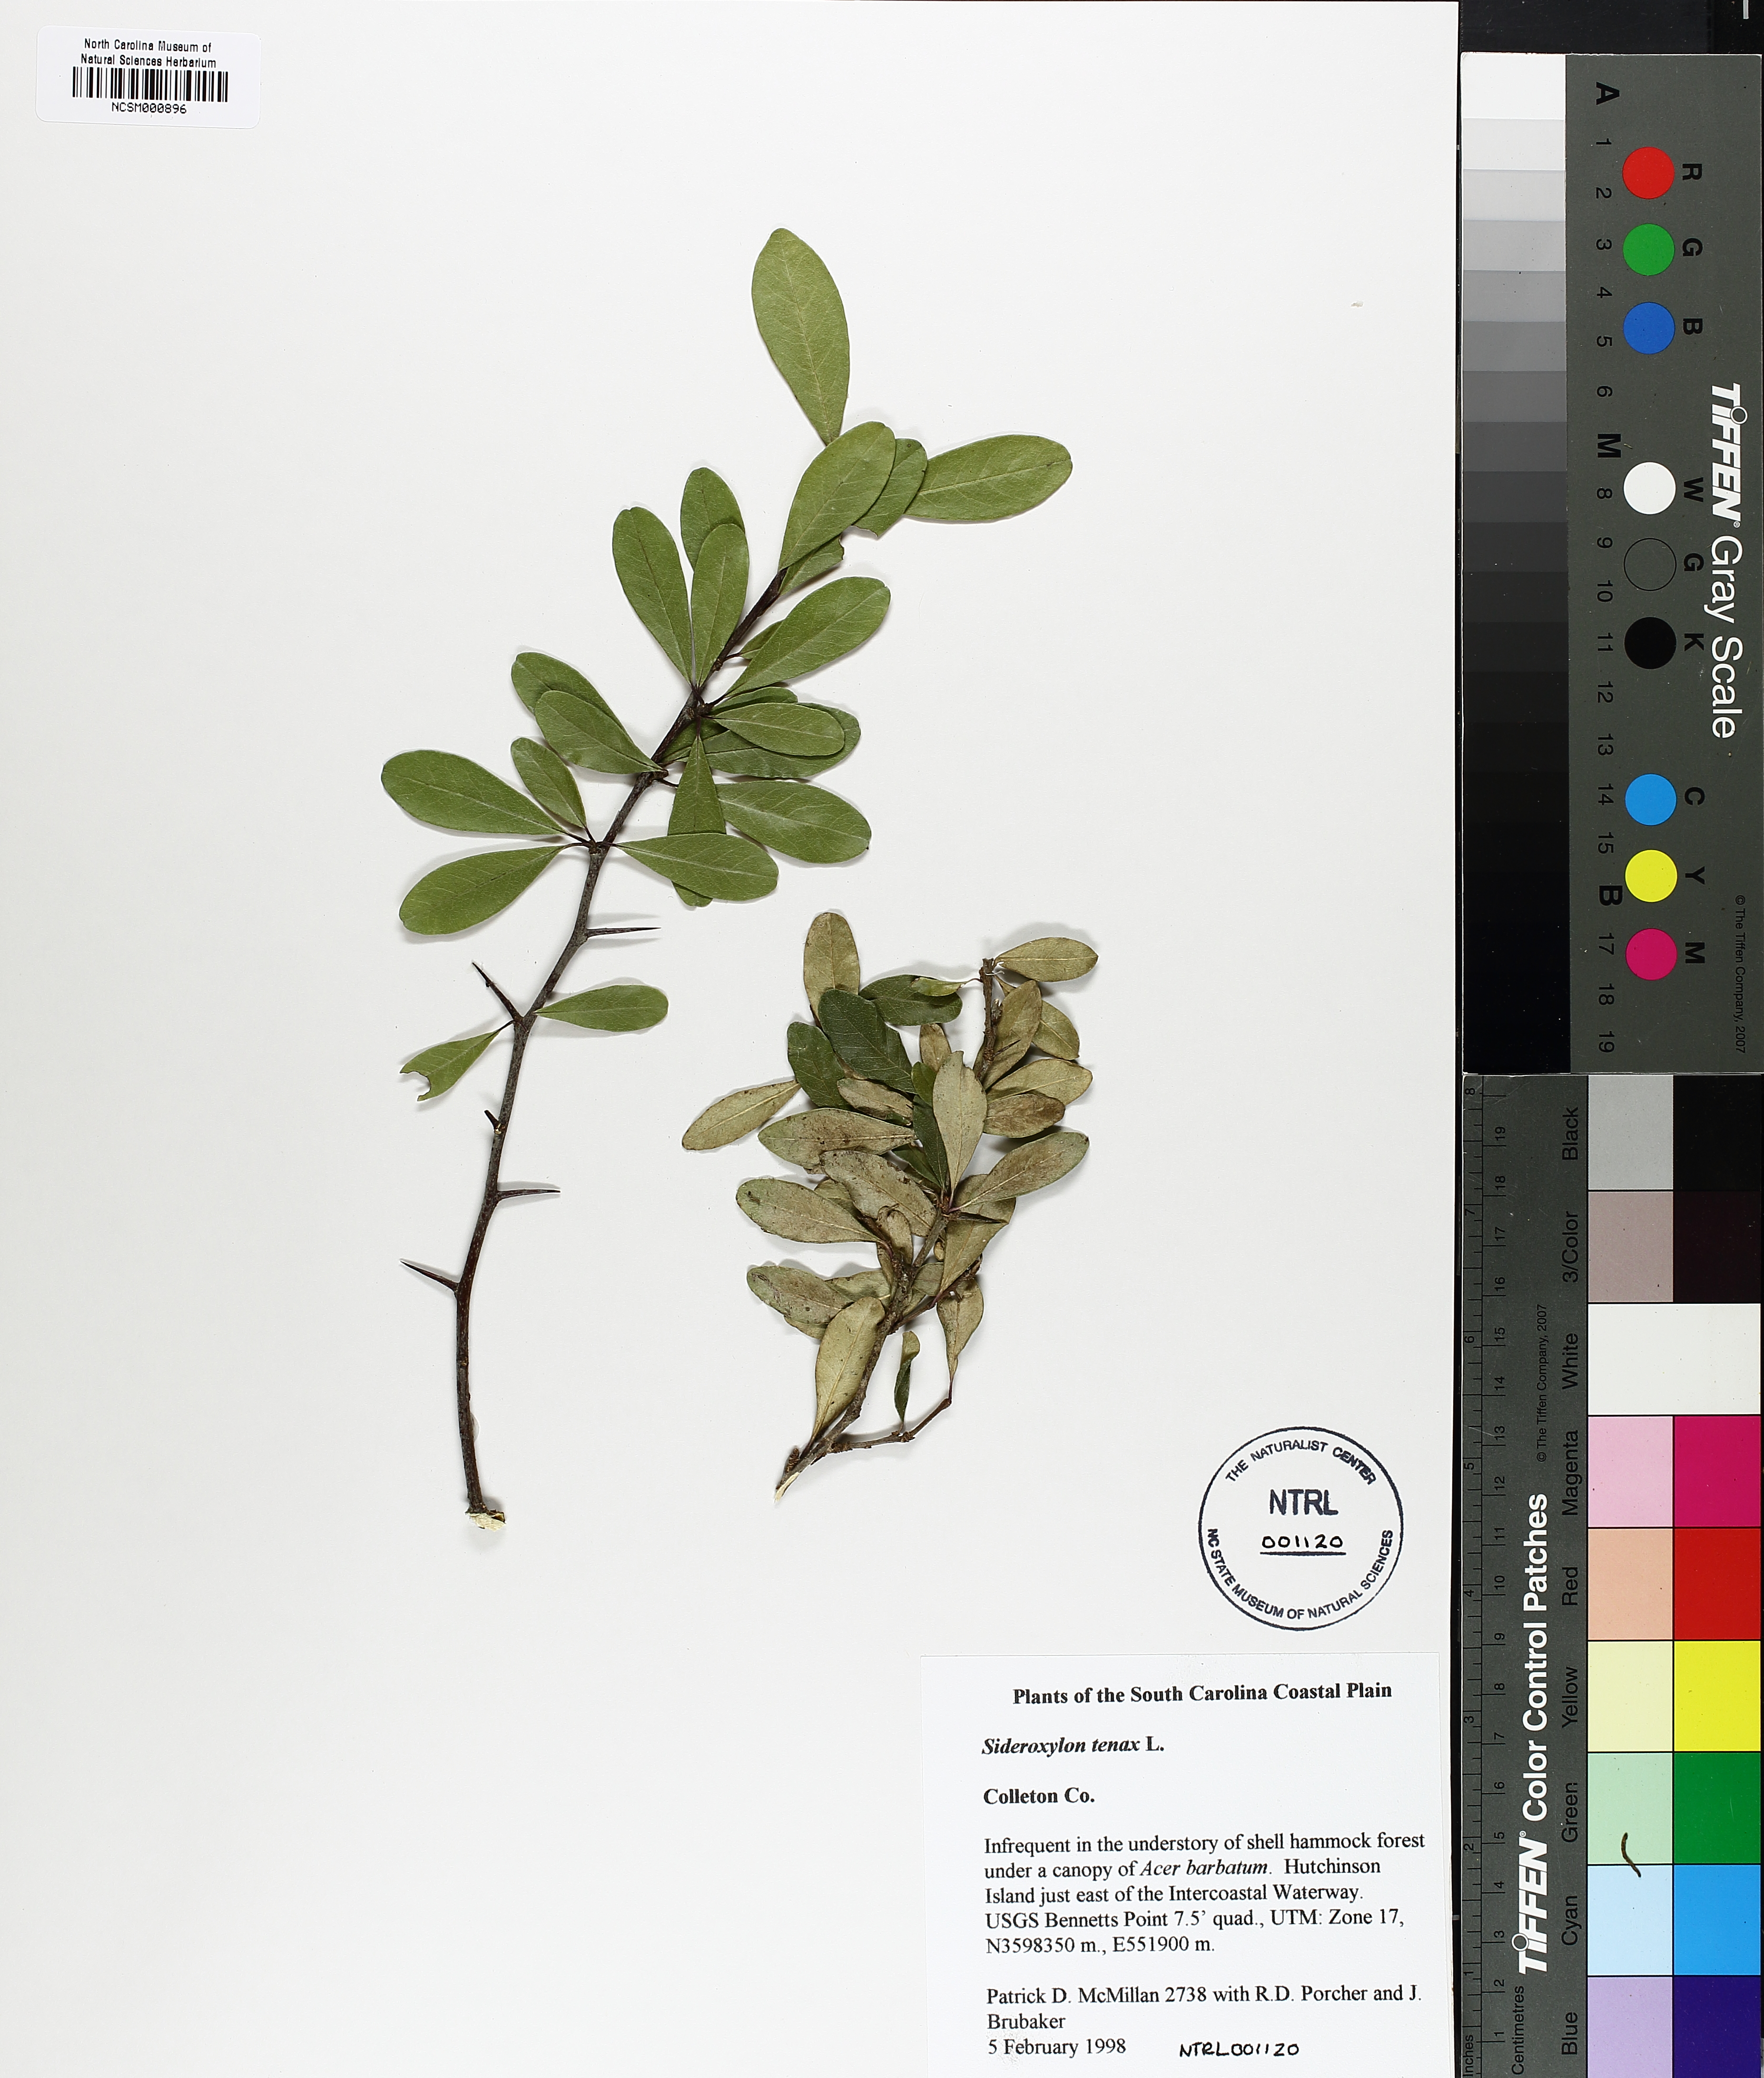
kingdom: Plantae
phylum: Tracheophyta
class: Magnoliopsida
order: Ericales
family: Sapotaceae
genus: Sideroxylon
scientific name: Sideroxylon tenax
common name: Tough-buckthorn
